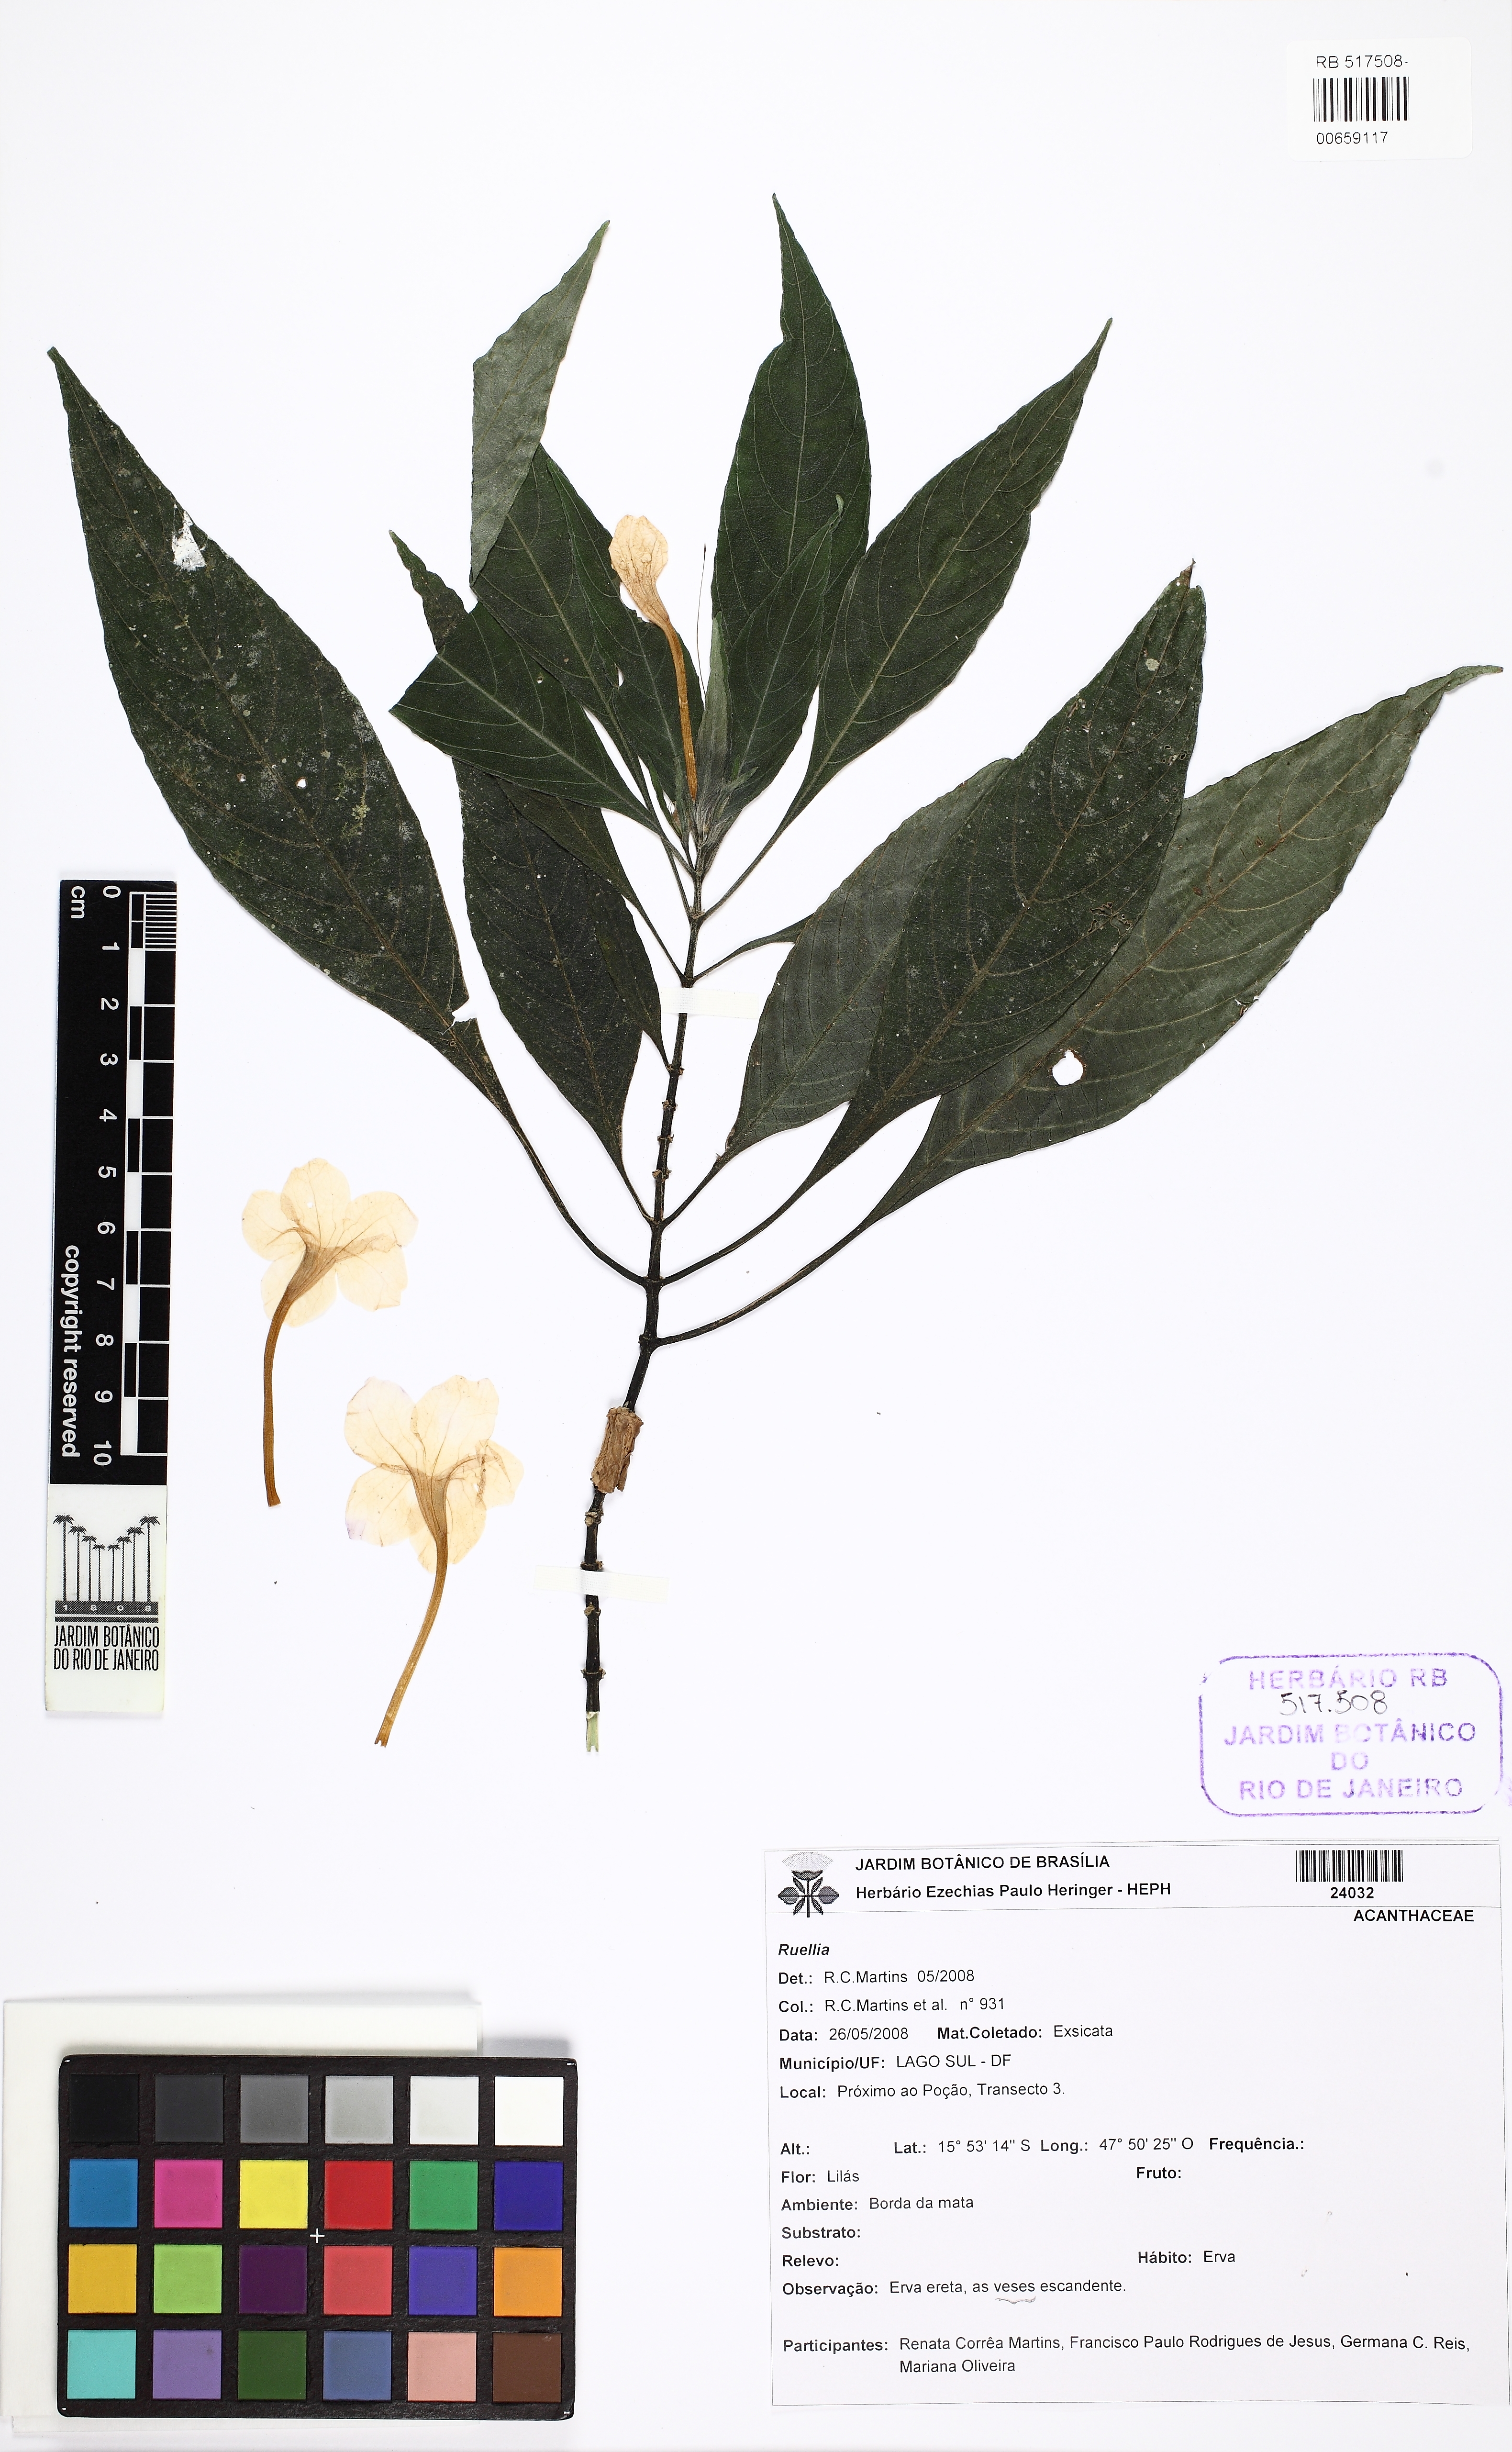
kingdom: Plantae
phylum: Tracheophyta
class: Magnoliopsida
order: Lamiales
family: Acanthaceae
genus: Ruellia
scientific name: Ruellia jussieuoides
